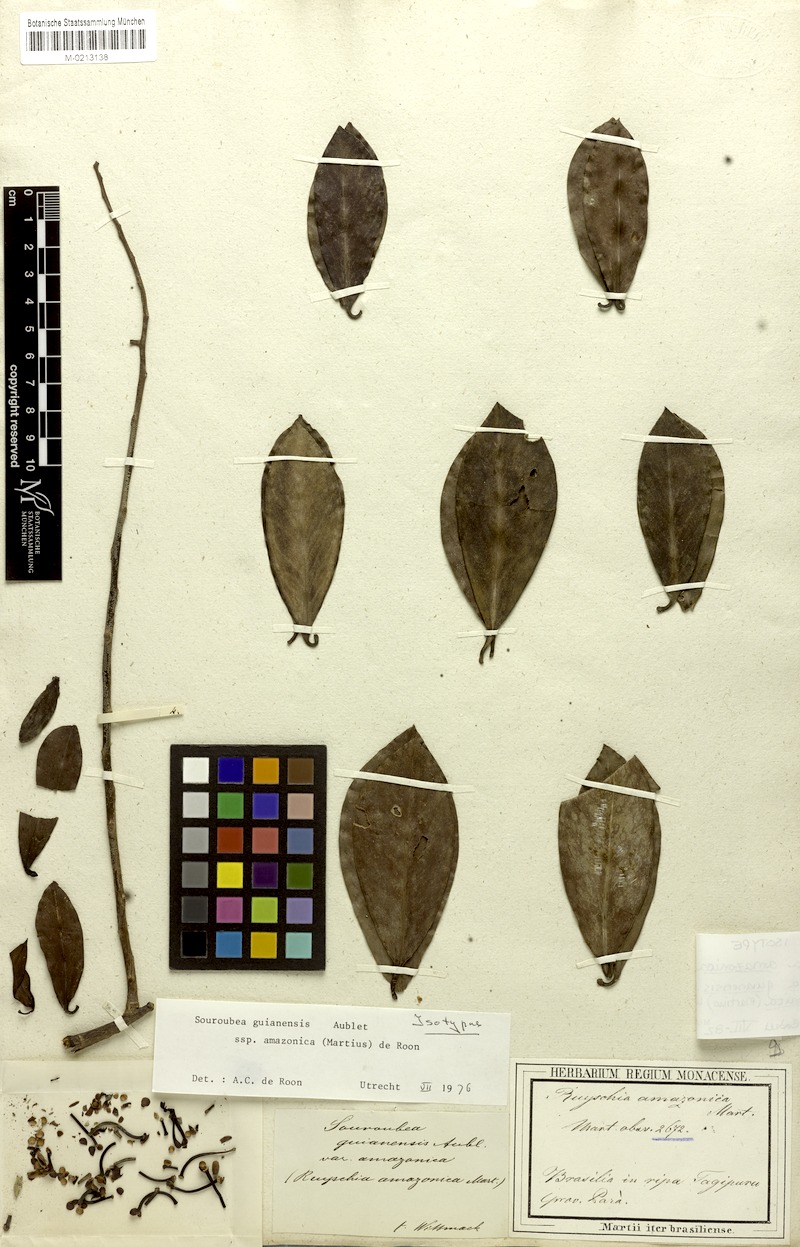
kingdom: Plantae
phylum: Tracheophyta
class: Magnoliopsida
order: Ericales
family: Marcgraviaceae
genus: Souroubea
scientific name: Souroubea guianensis
